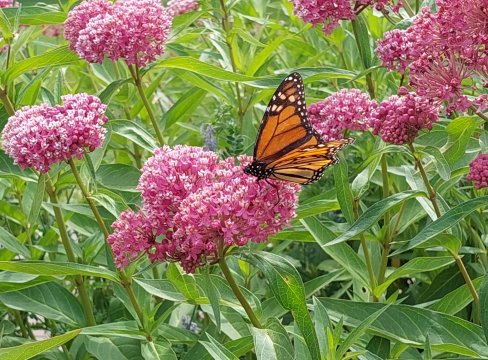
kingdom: Animalia
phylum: Arthropoda
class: Insecta
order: Lepidoptera
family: Nymphalidae
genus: Danaus
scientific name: Danaus plexippus
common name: Monarch
